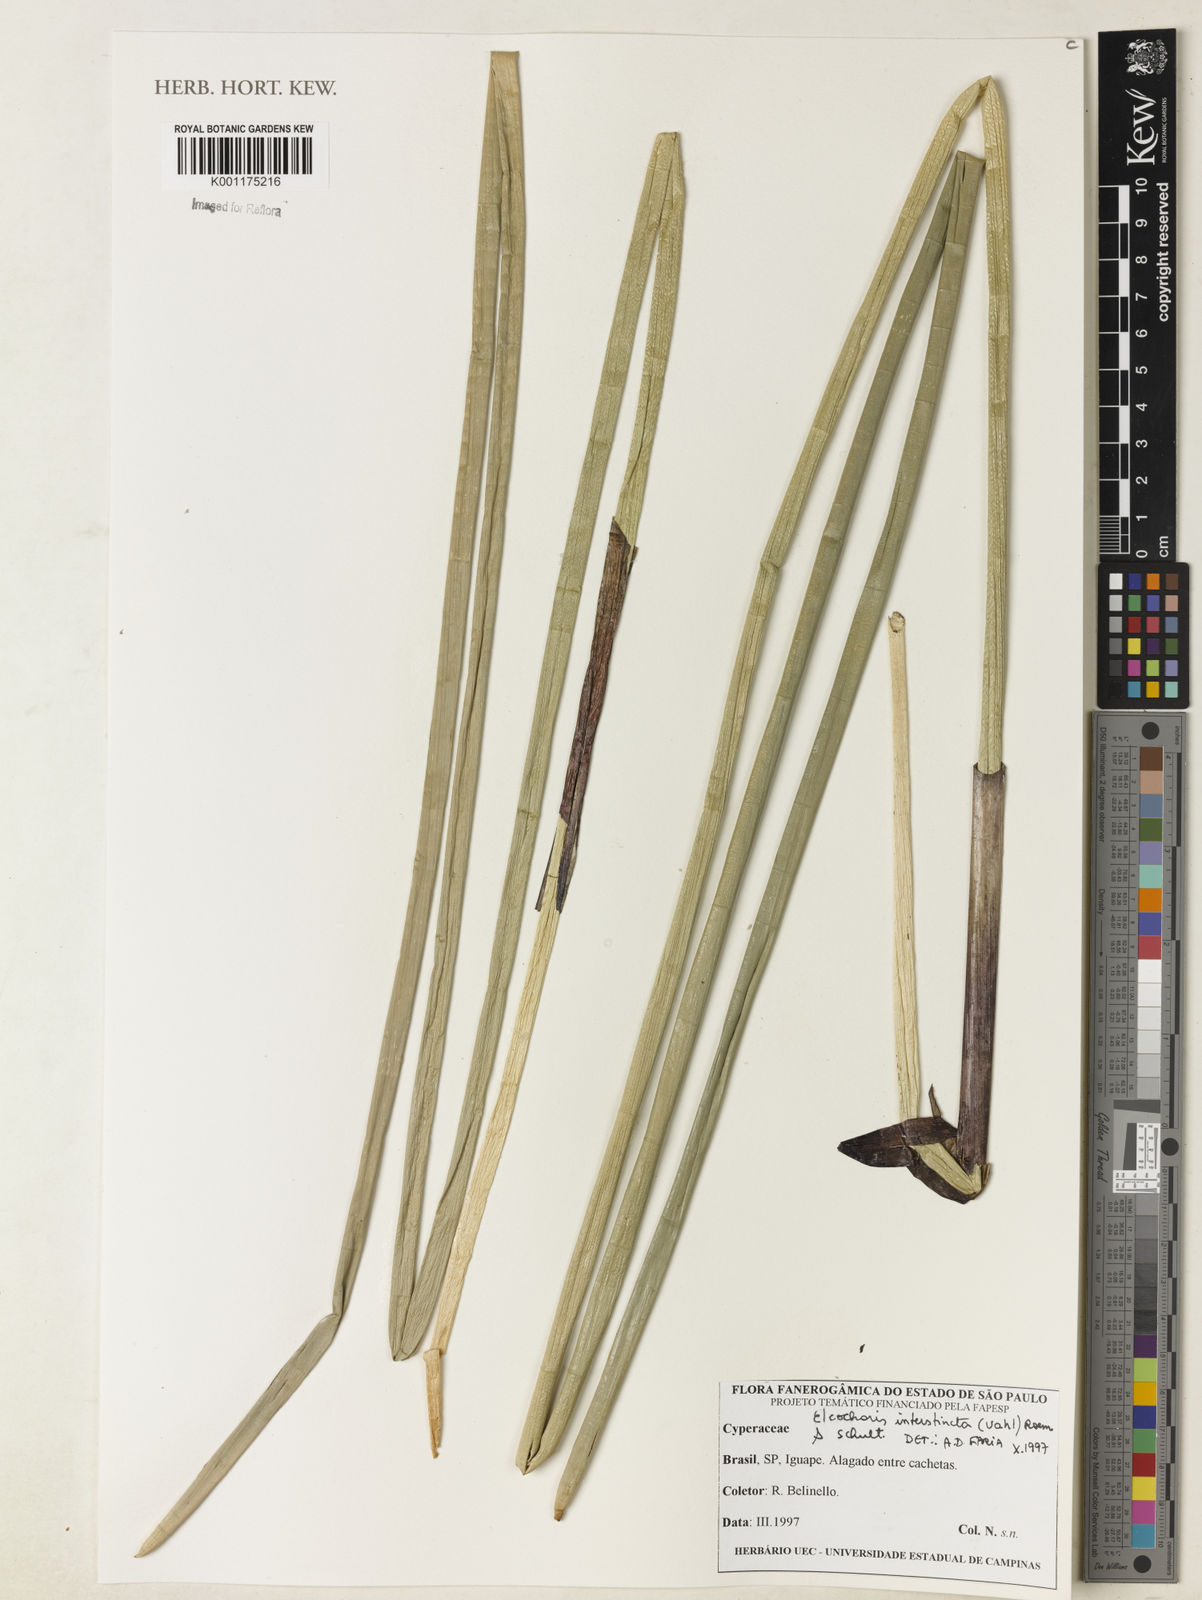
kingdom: Plantae
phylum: Tracheophyta
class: Liliopsida
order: Poales
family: Cyperaceae
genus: Eleocharis
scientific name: Eleocharis interstincta
